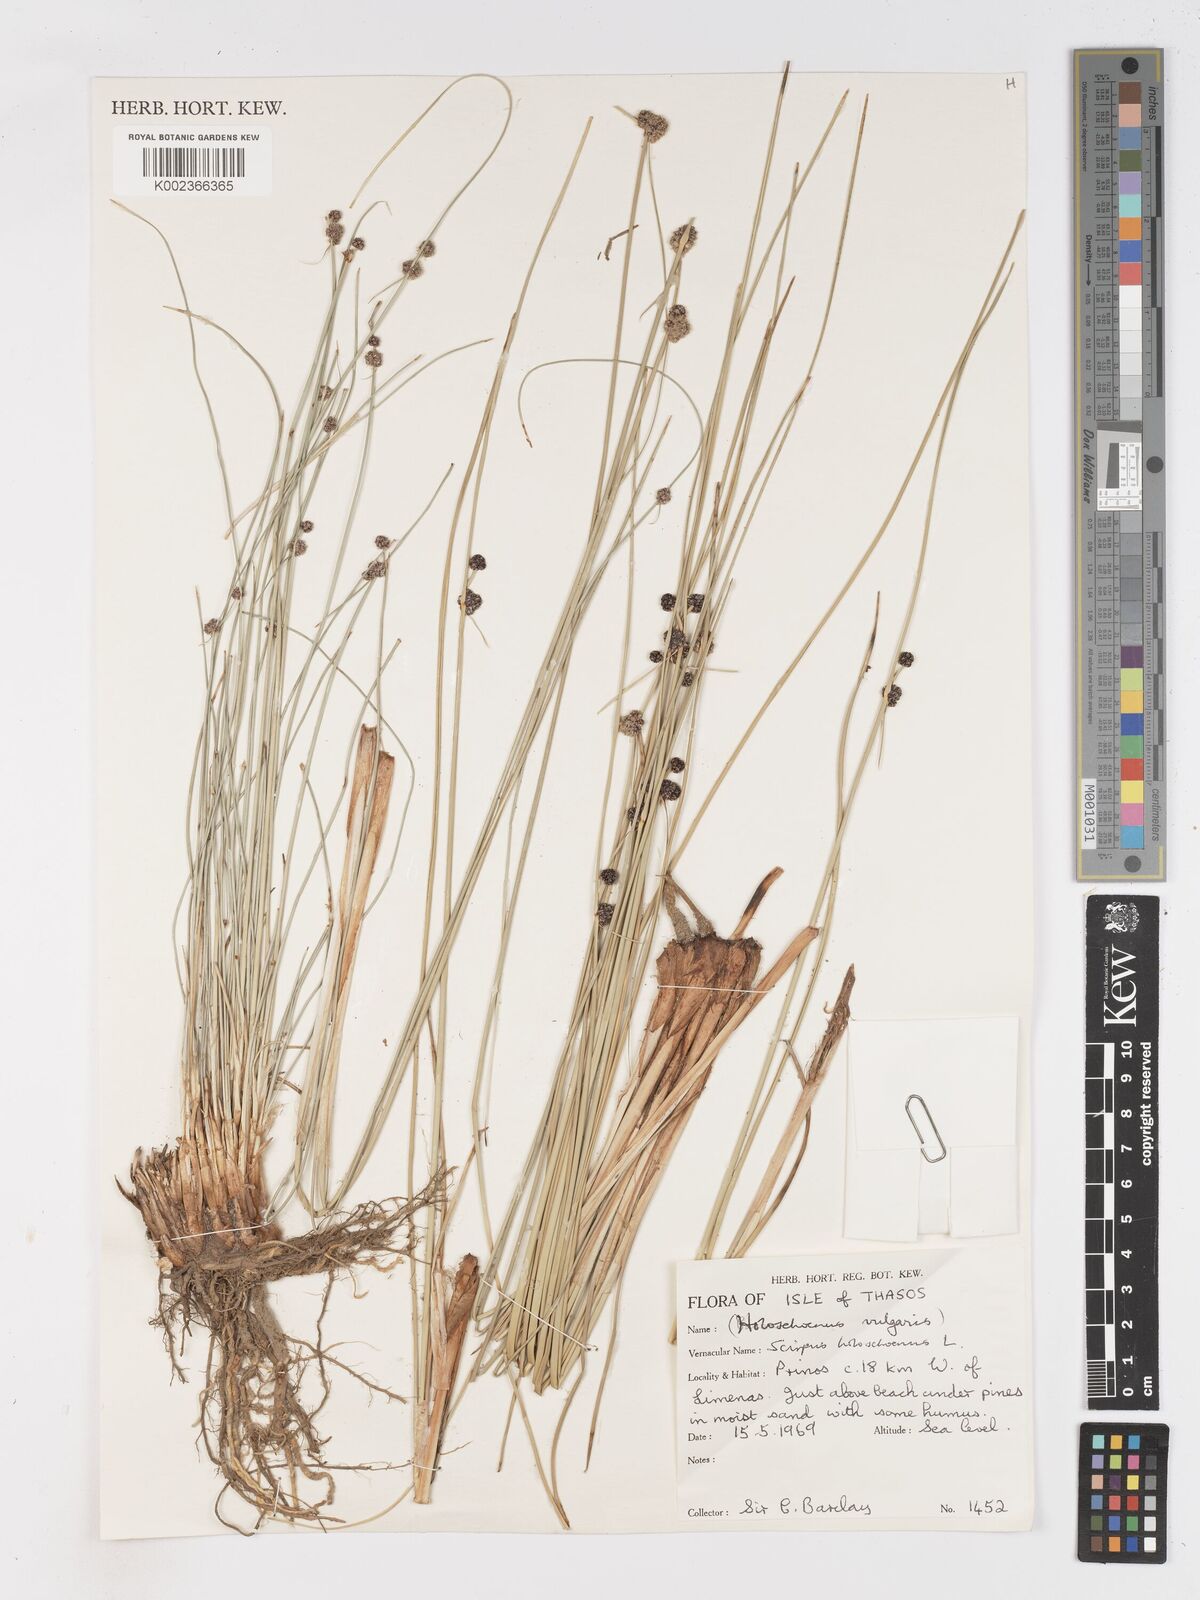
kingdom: Plantae
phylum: Tracheophyta
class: Liliopsida
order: Poales
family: Cyperaceae
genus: Scirpoides
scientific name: Scirpoides holoschoenus
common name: Round-headed club-rush
